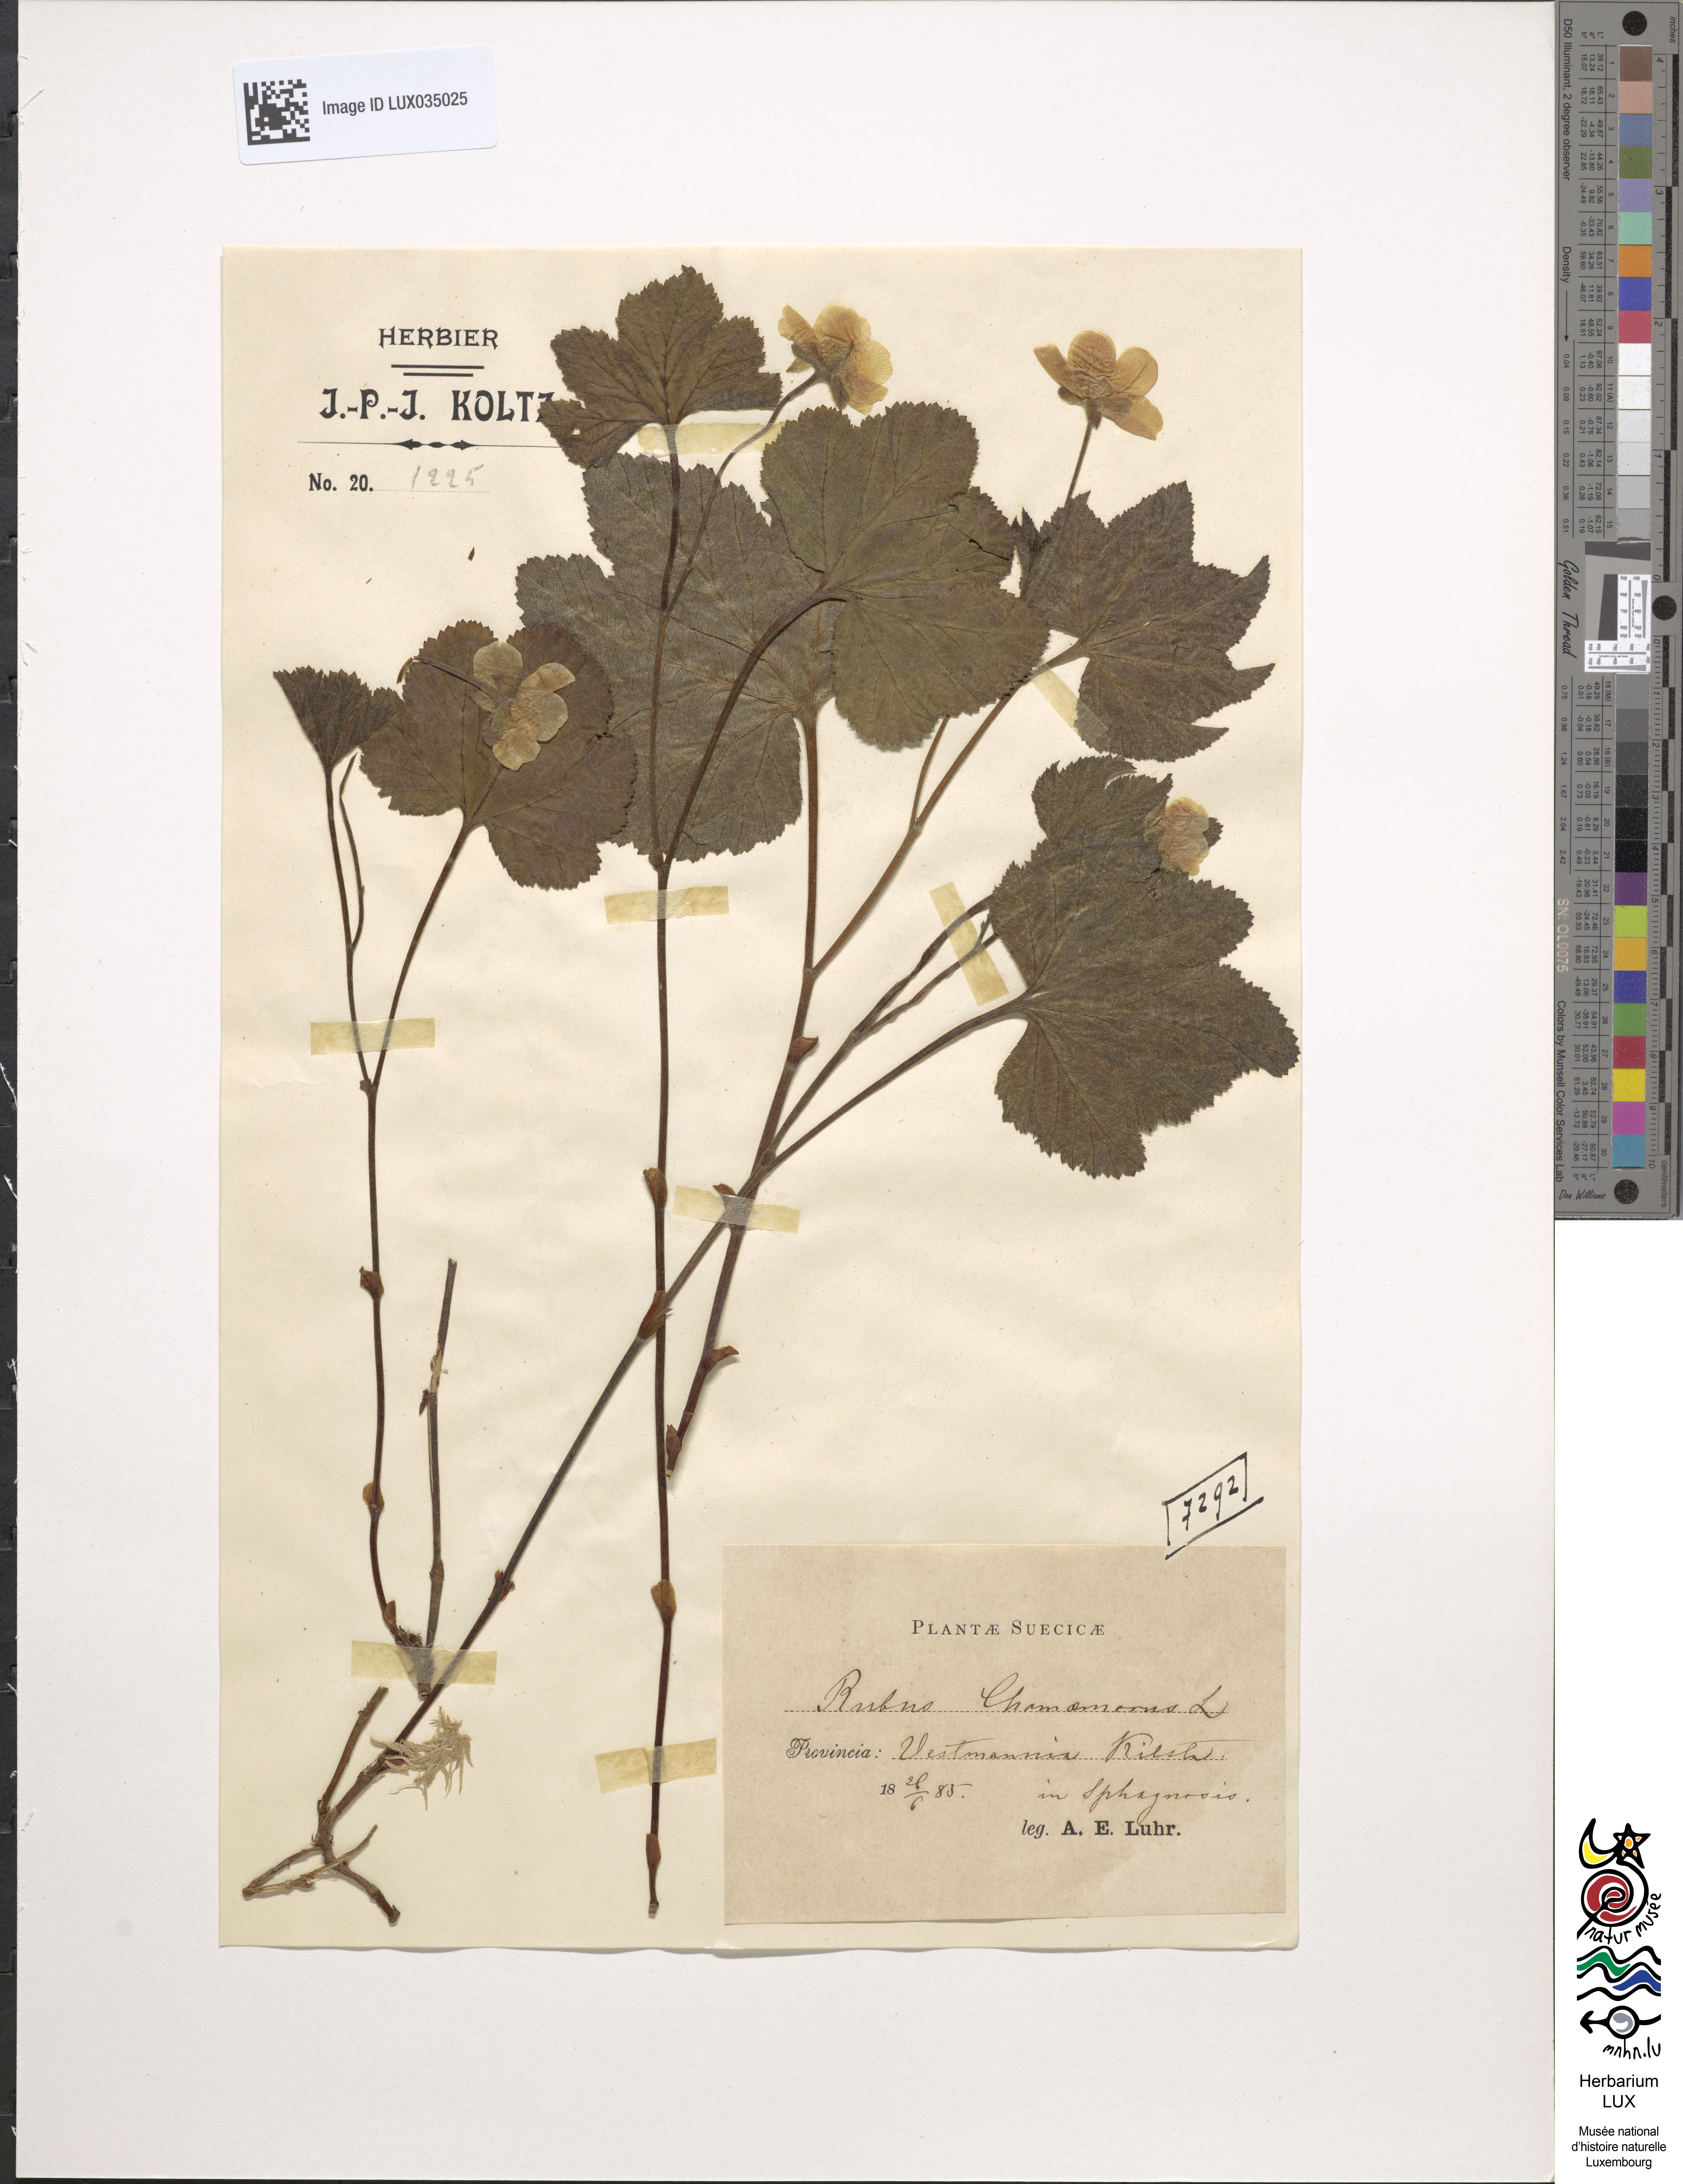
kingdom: Plantae
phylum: Tracheophyta
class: Magnoliopsida
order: Rosales
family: Rosaceae
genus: Rubus
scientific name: Rubus chamaemorus
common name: Cloudberry
